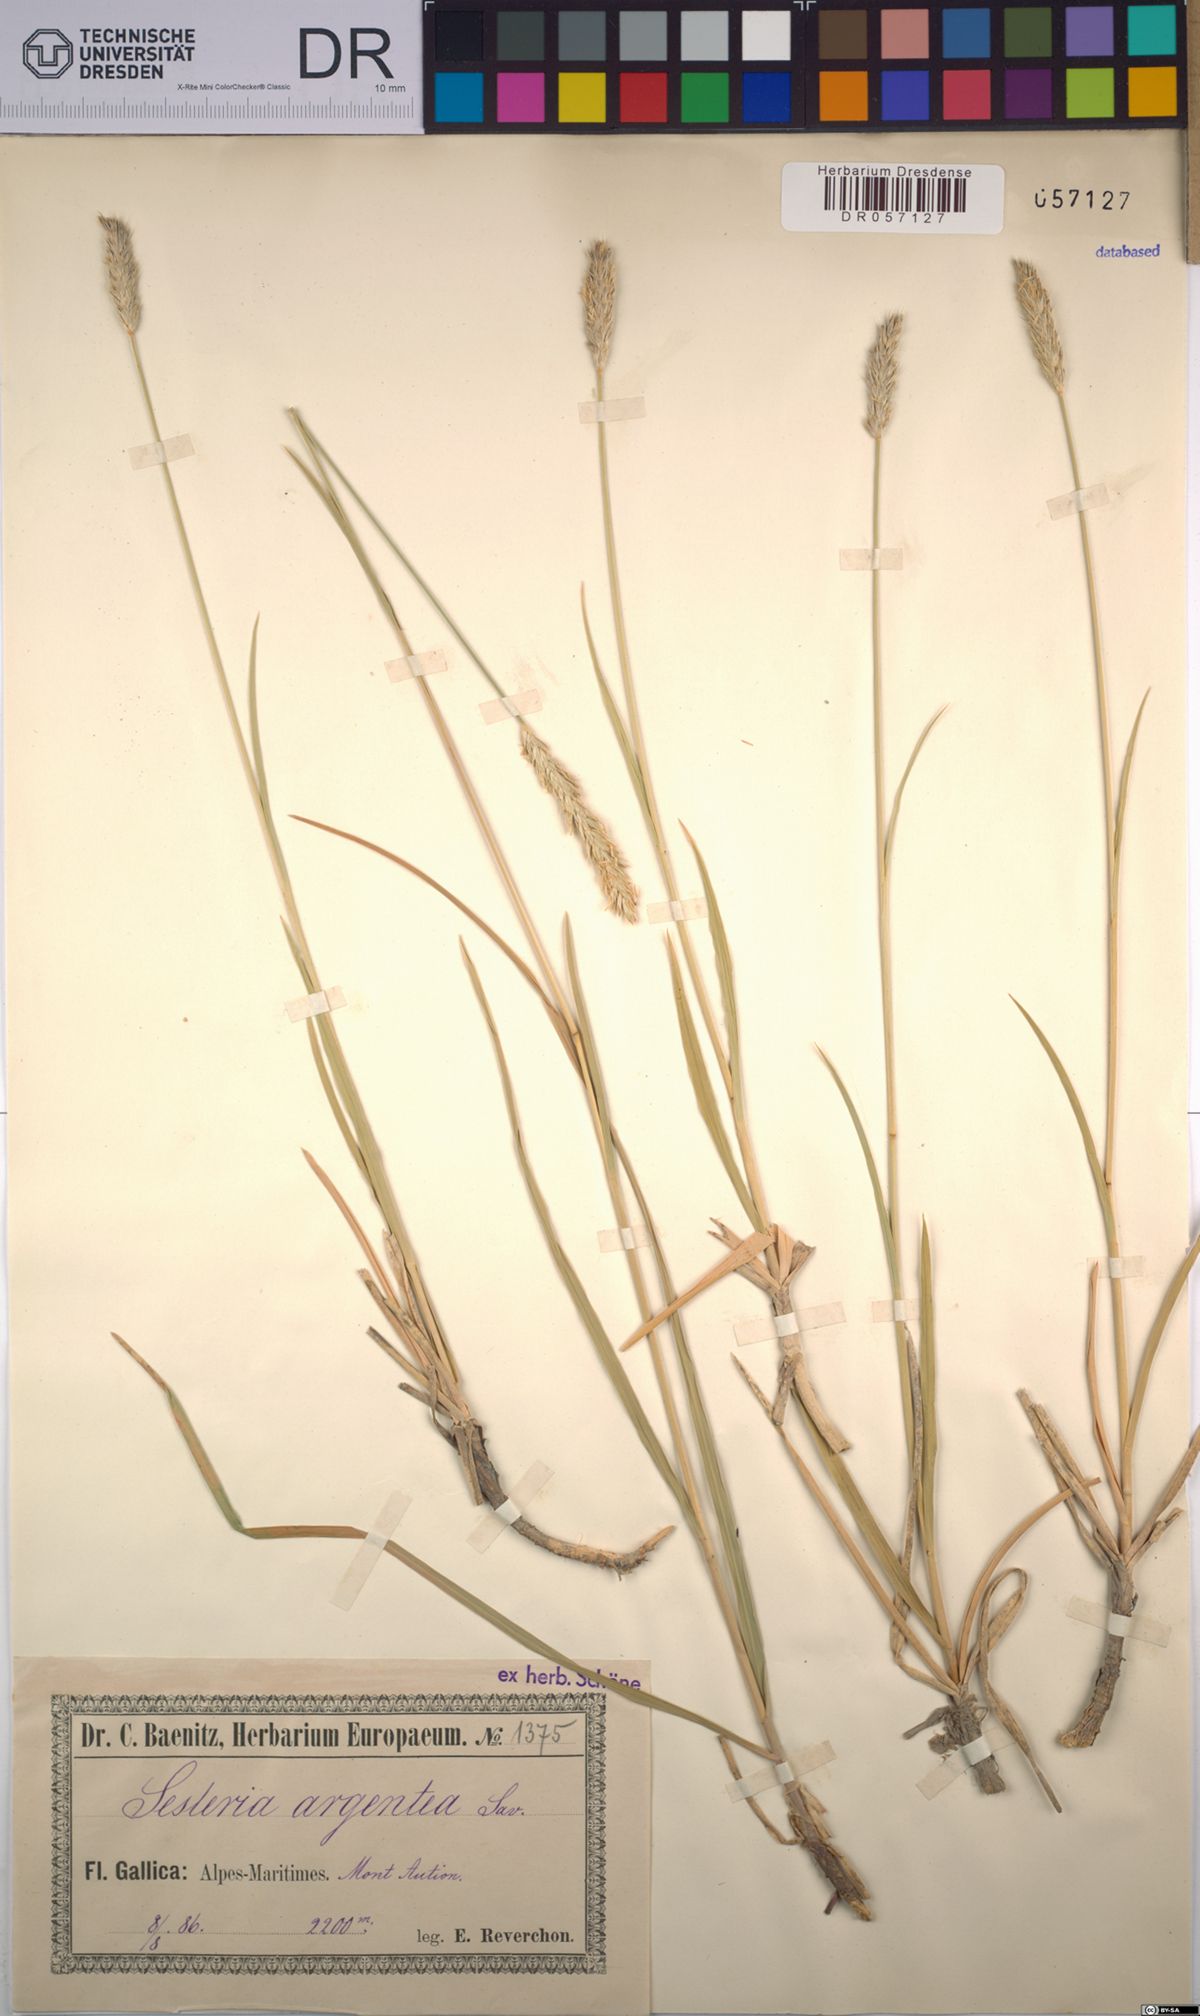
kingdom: Plantae
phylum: Tracheophyta
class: Liliopsida
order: Poales
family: Poaceae
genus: Sesleria
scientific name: Sesleria argentea
